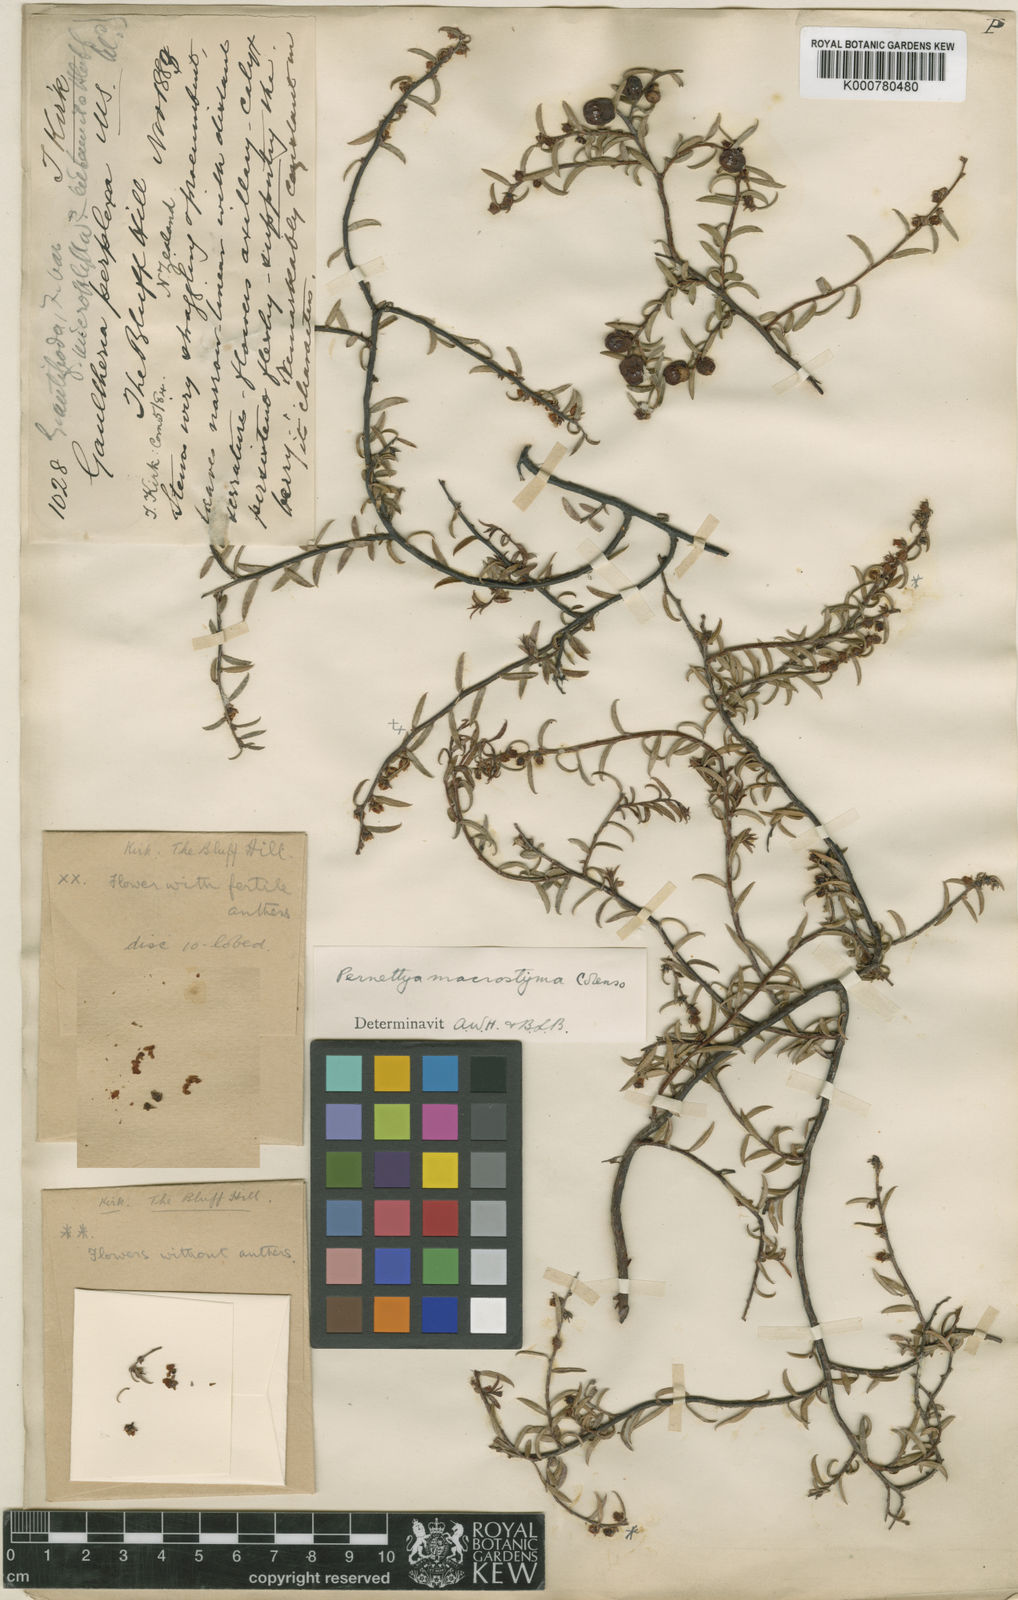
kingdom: Plantae
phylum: Tracheophyta
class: Magnoliopsida
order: Ericales
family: Ericaceae
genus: Gaultheria
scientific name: Gaultheria macrostigma
